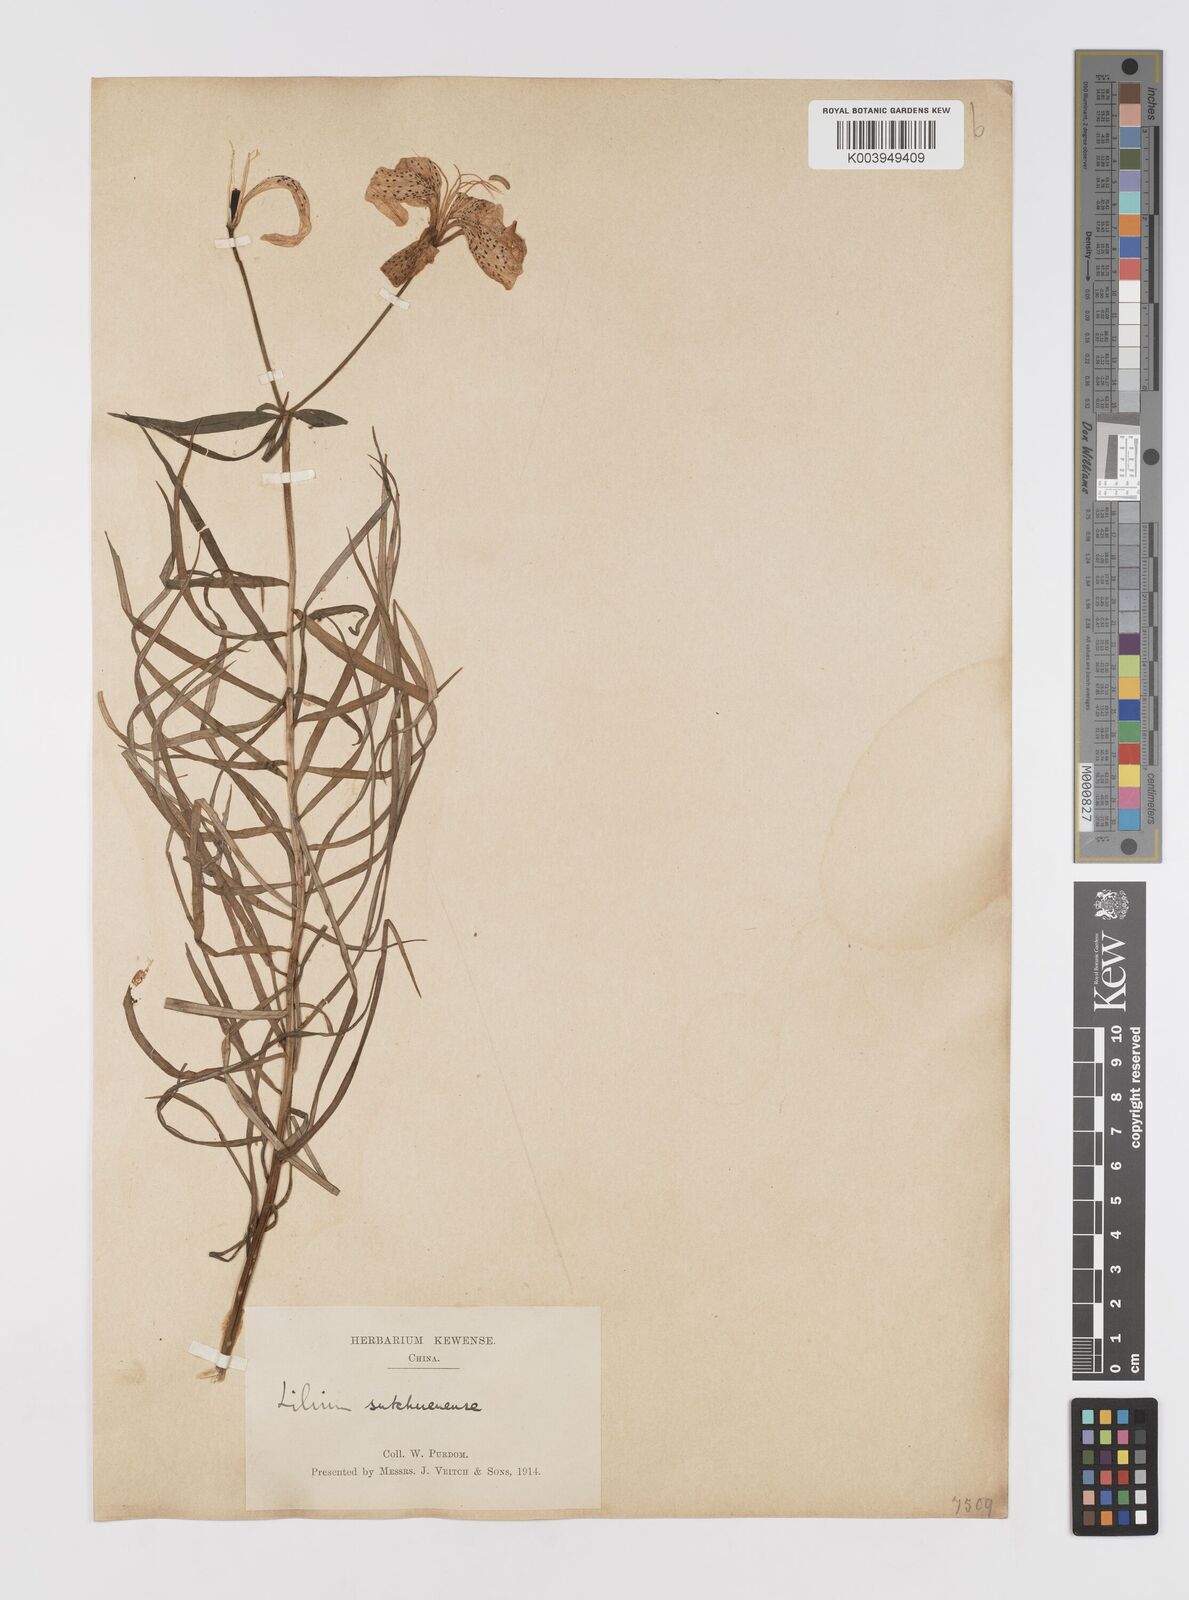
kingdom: Plantae
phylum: Tracheophyta
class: Liliopsida
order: Liliales
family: Liliaceae
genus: Lilium
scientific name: Lilium davidii
